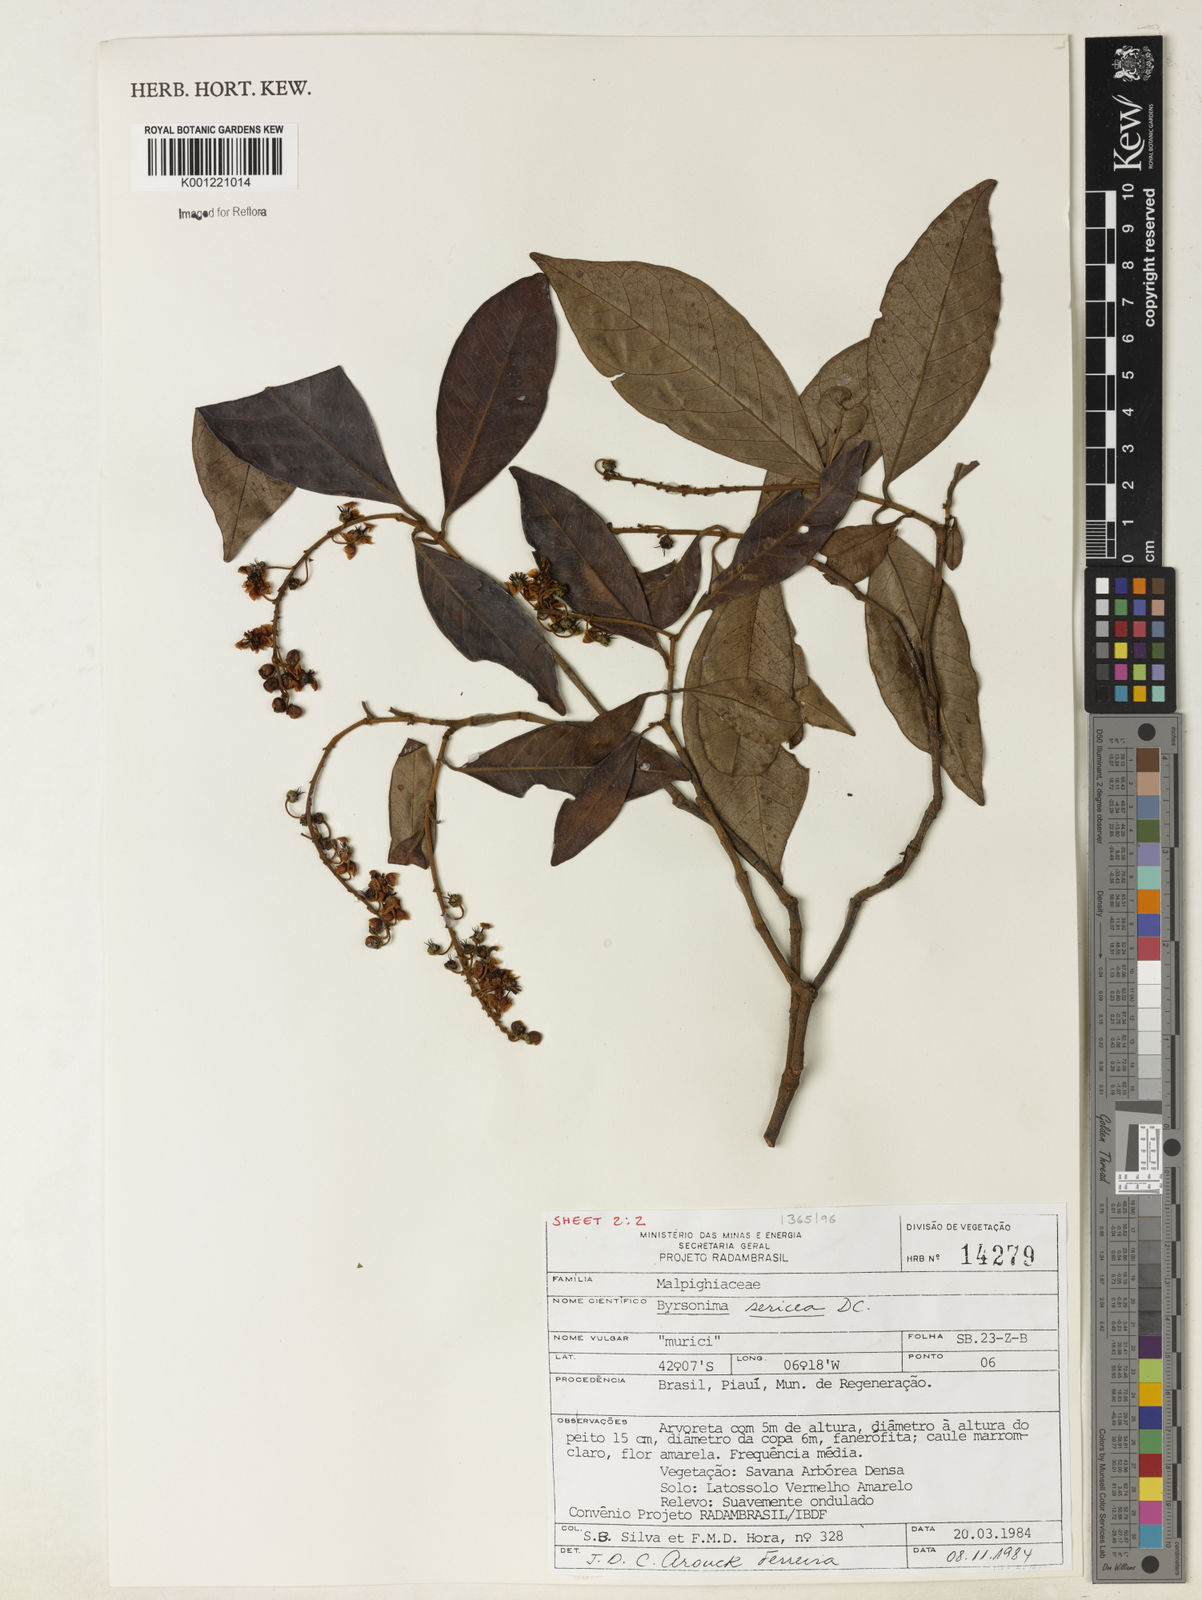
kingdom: Plantae
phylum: Tracheophyta
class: Magnoliopsida
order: Malpighiales
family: Malpighiaceae
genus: Byrsonima
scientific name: Byrsonima sericea
